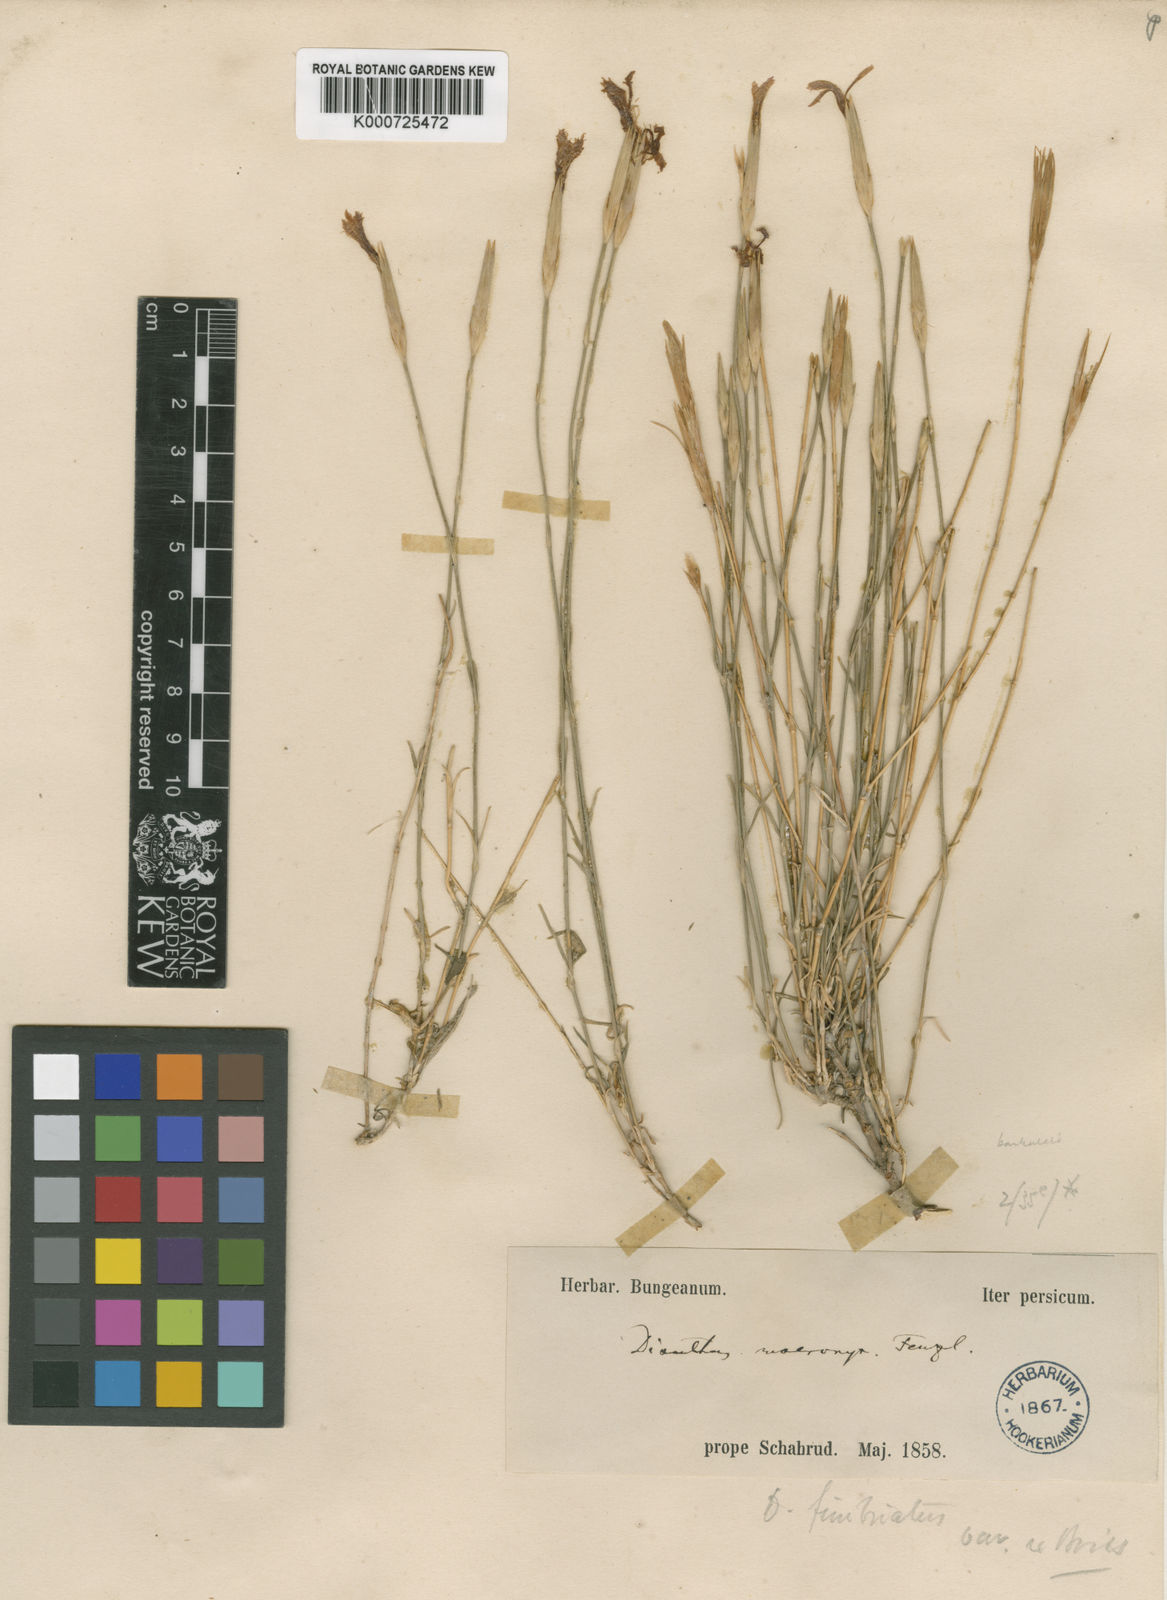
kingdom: Plantae
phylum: Tracheophyta
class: Magnoliopsida
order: Caryophyllales
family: Caryophyllaceae
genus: Dianthus
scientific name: Dianthus orientalis
